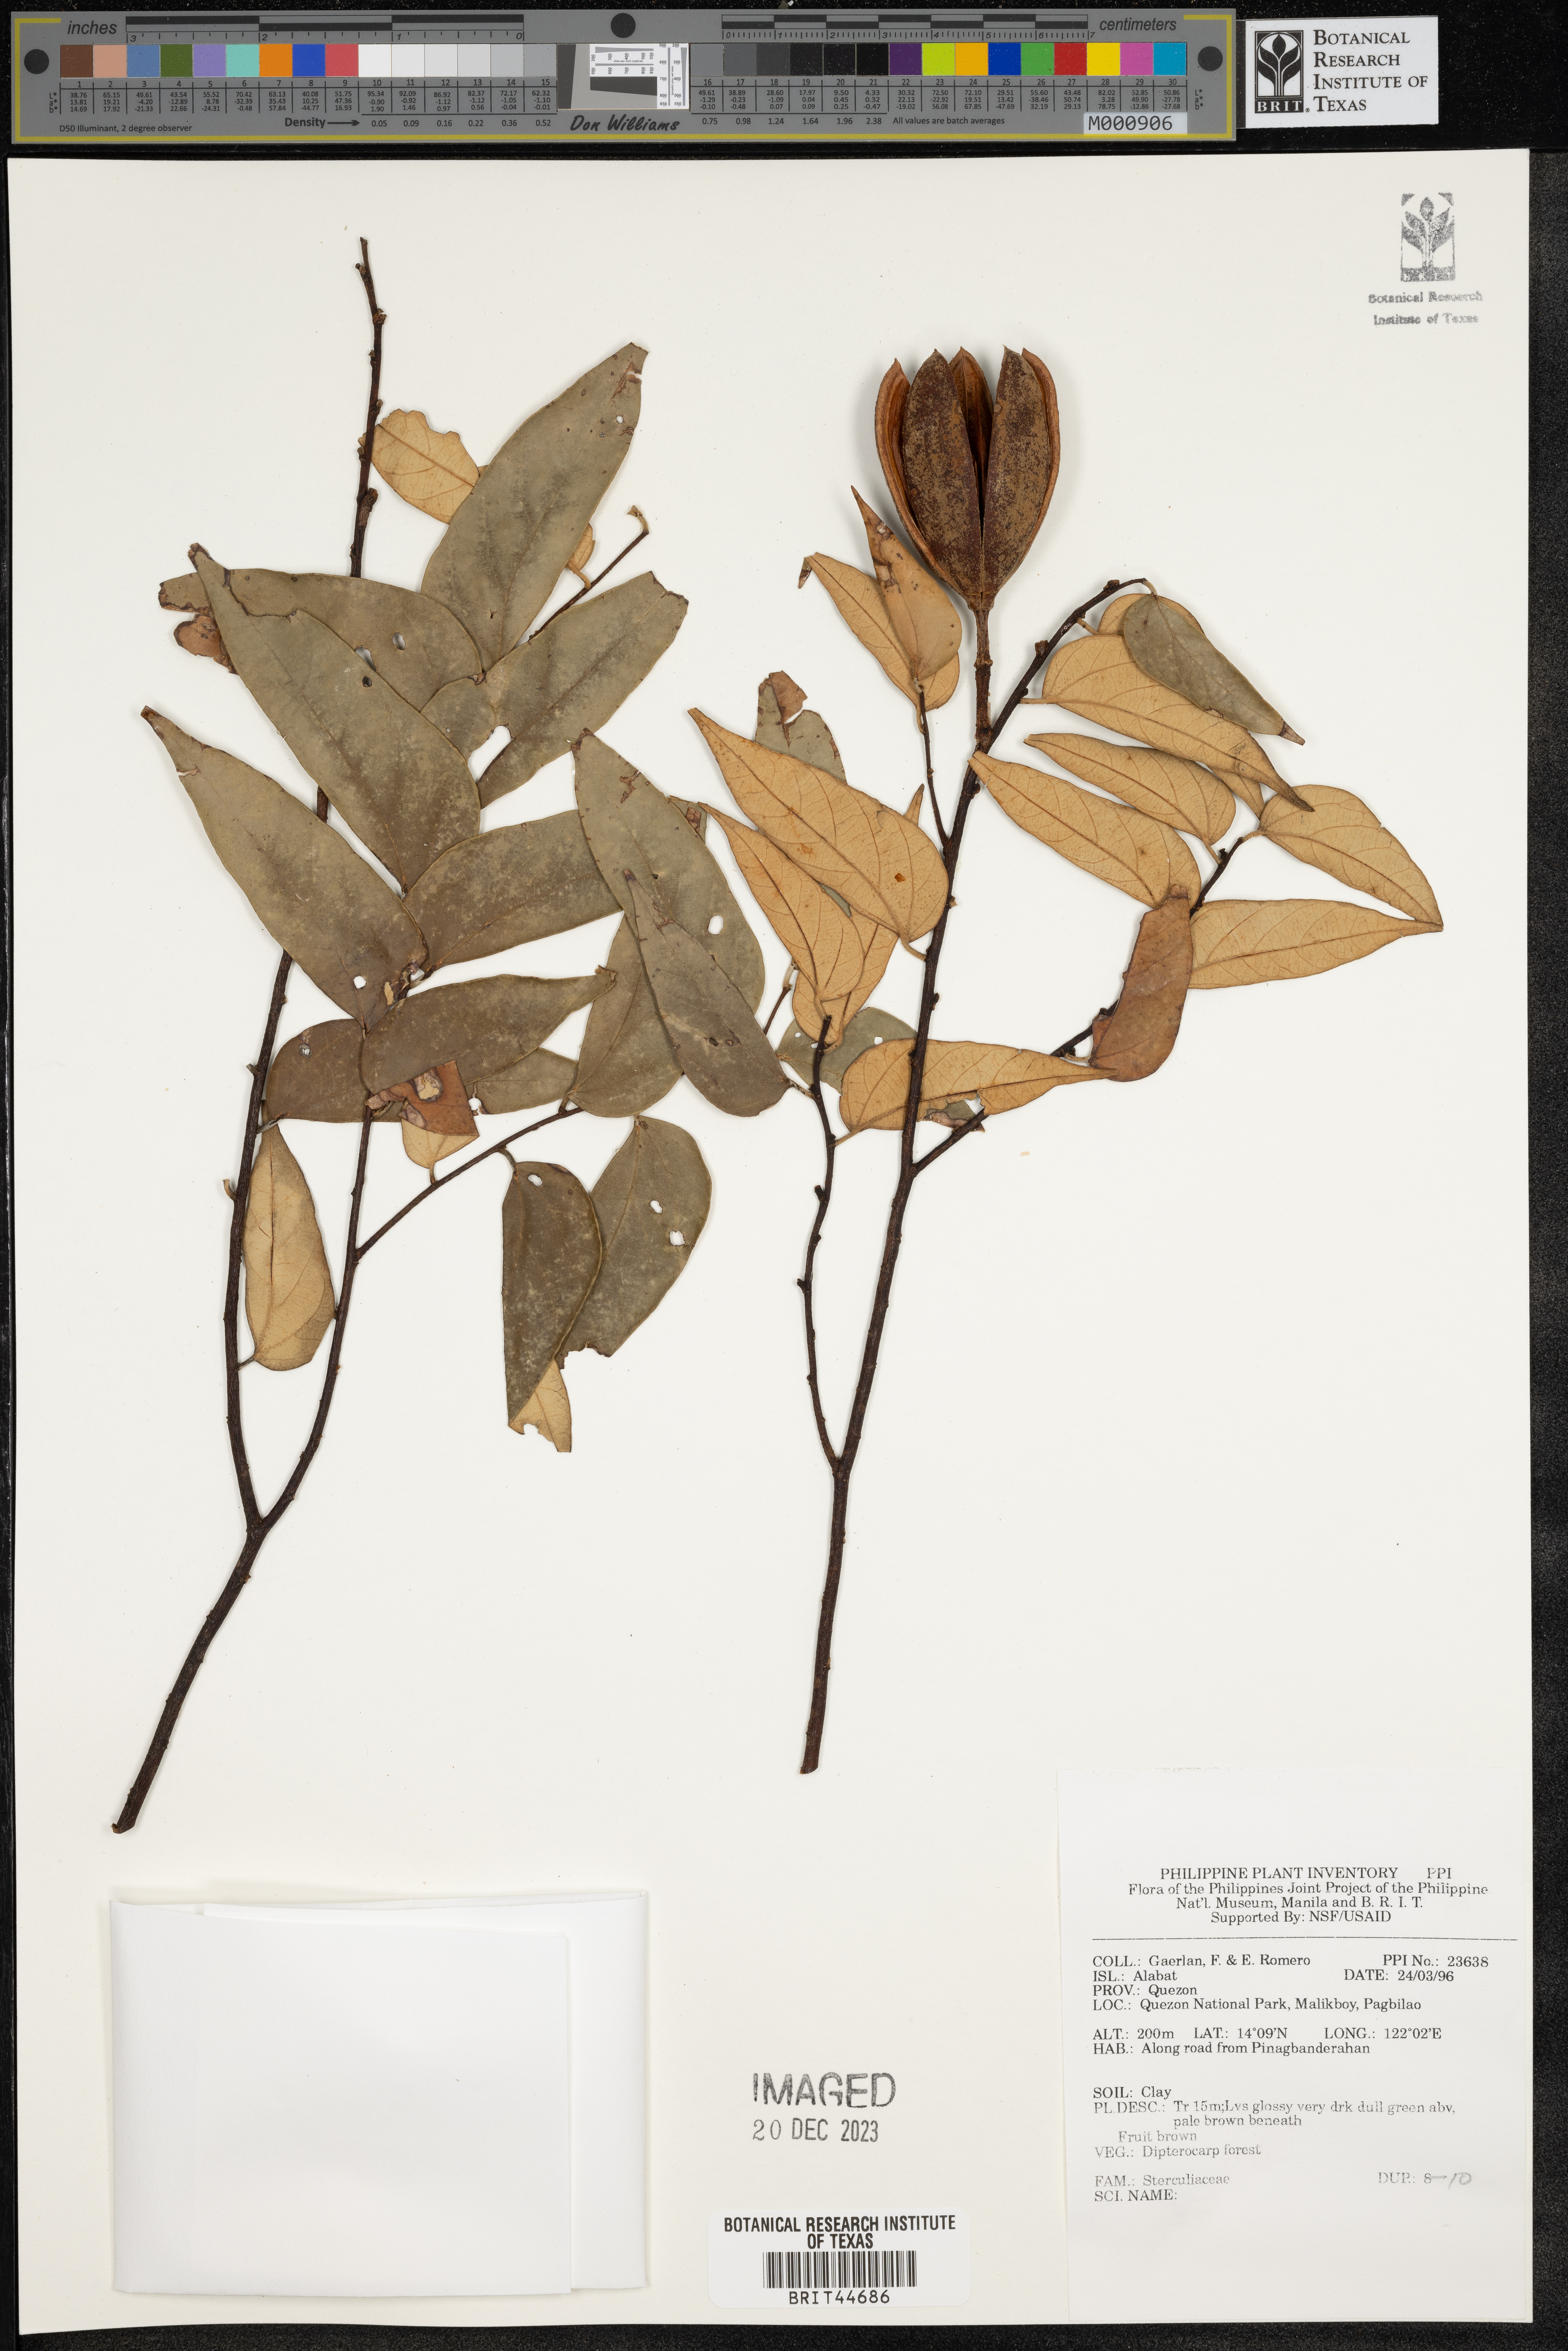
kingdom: Plantae
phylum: Tracheophyta
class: Magnoliopsida
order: Malvales
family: Sterculiaceae
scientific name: Sterculiaceae
